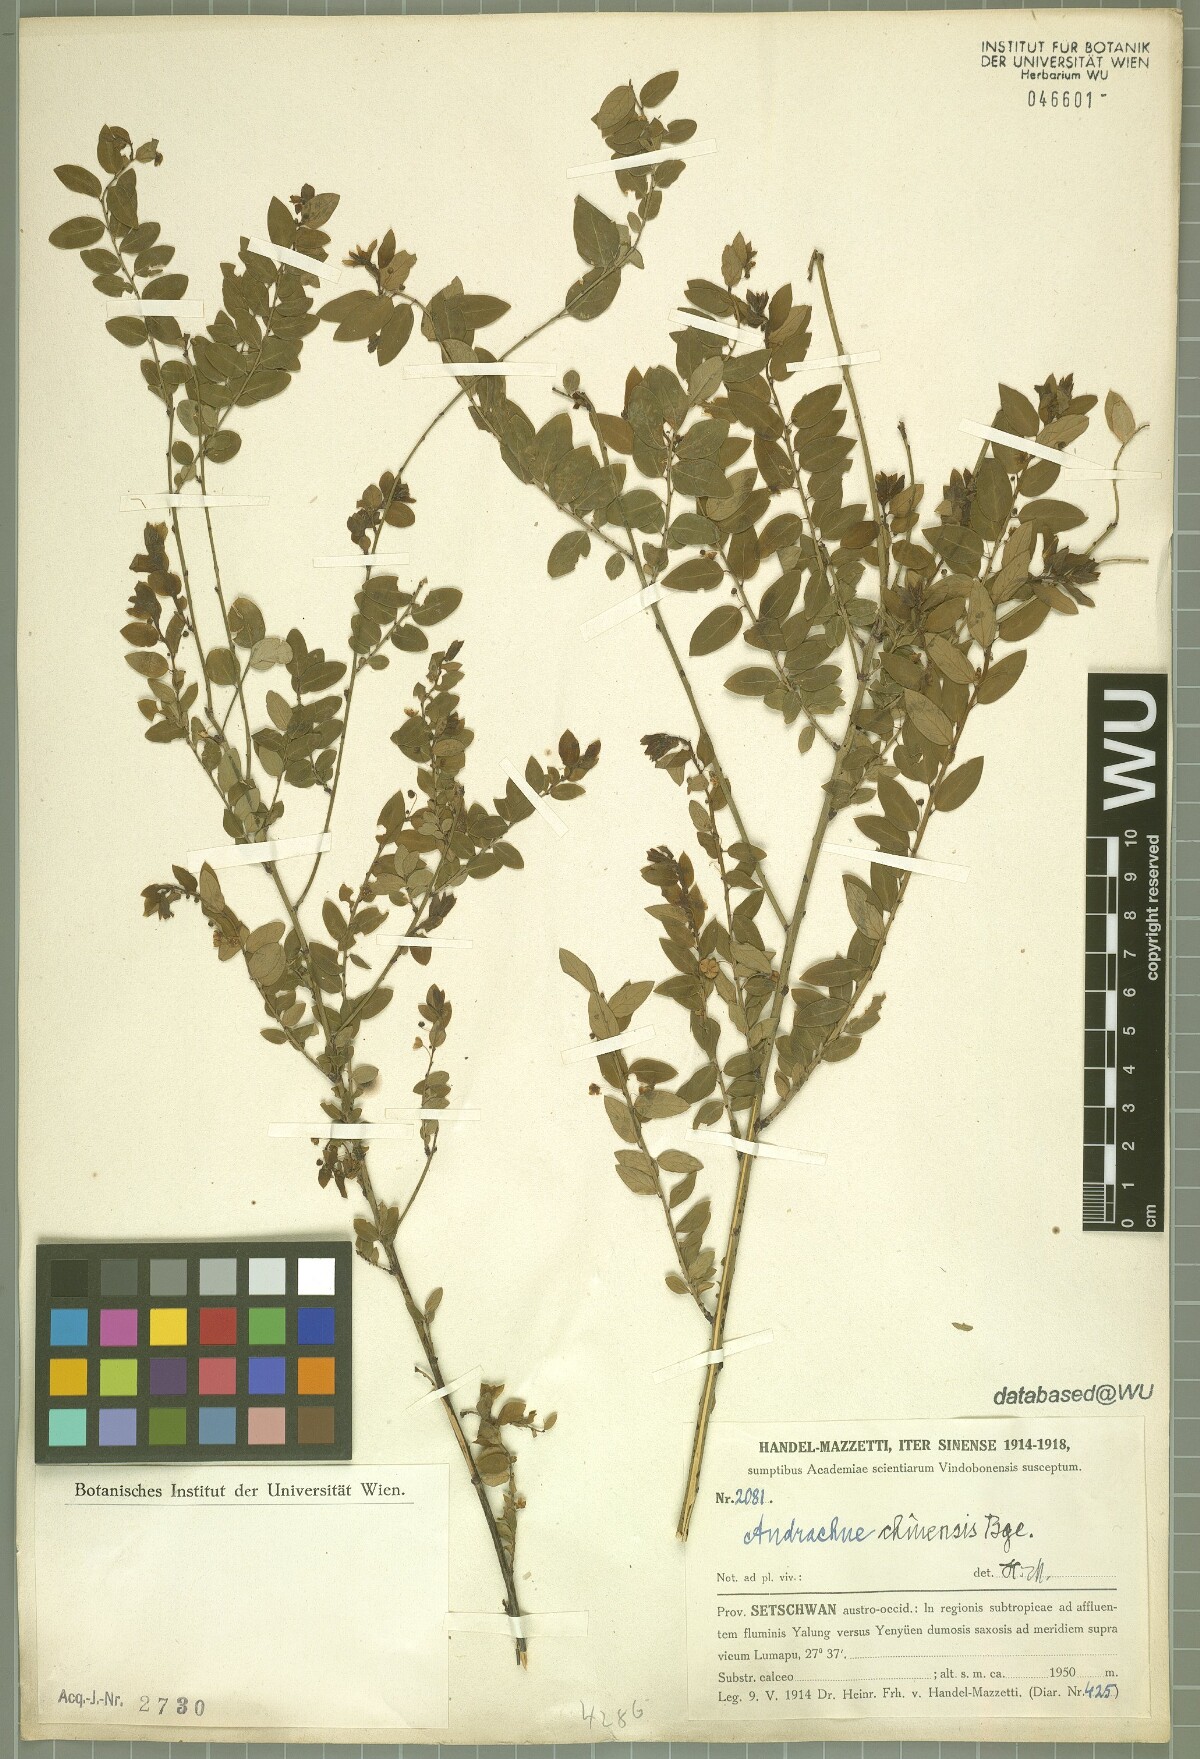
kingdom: Plantae
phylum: Tracheophyta
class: Magnoliopsida
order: Malpighiales
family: Phyllanthaceae
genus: Leptopus
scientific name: Leptopus chinensis
